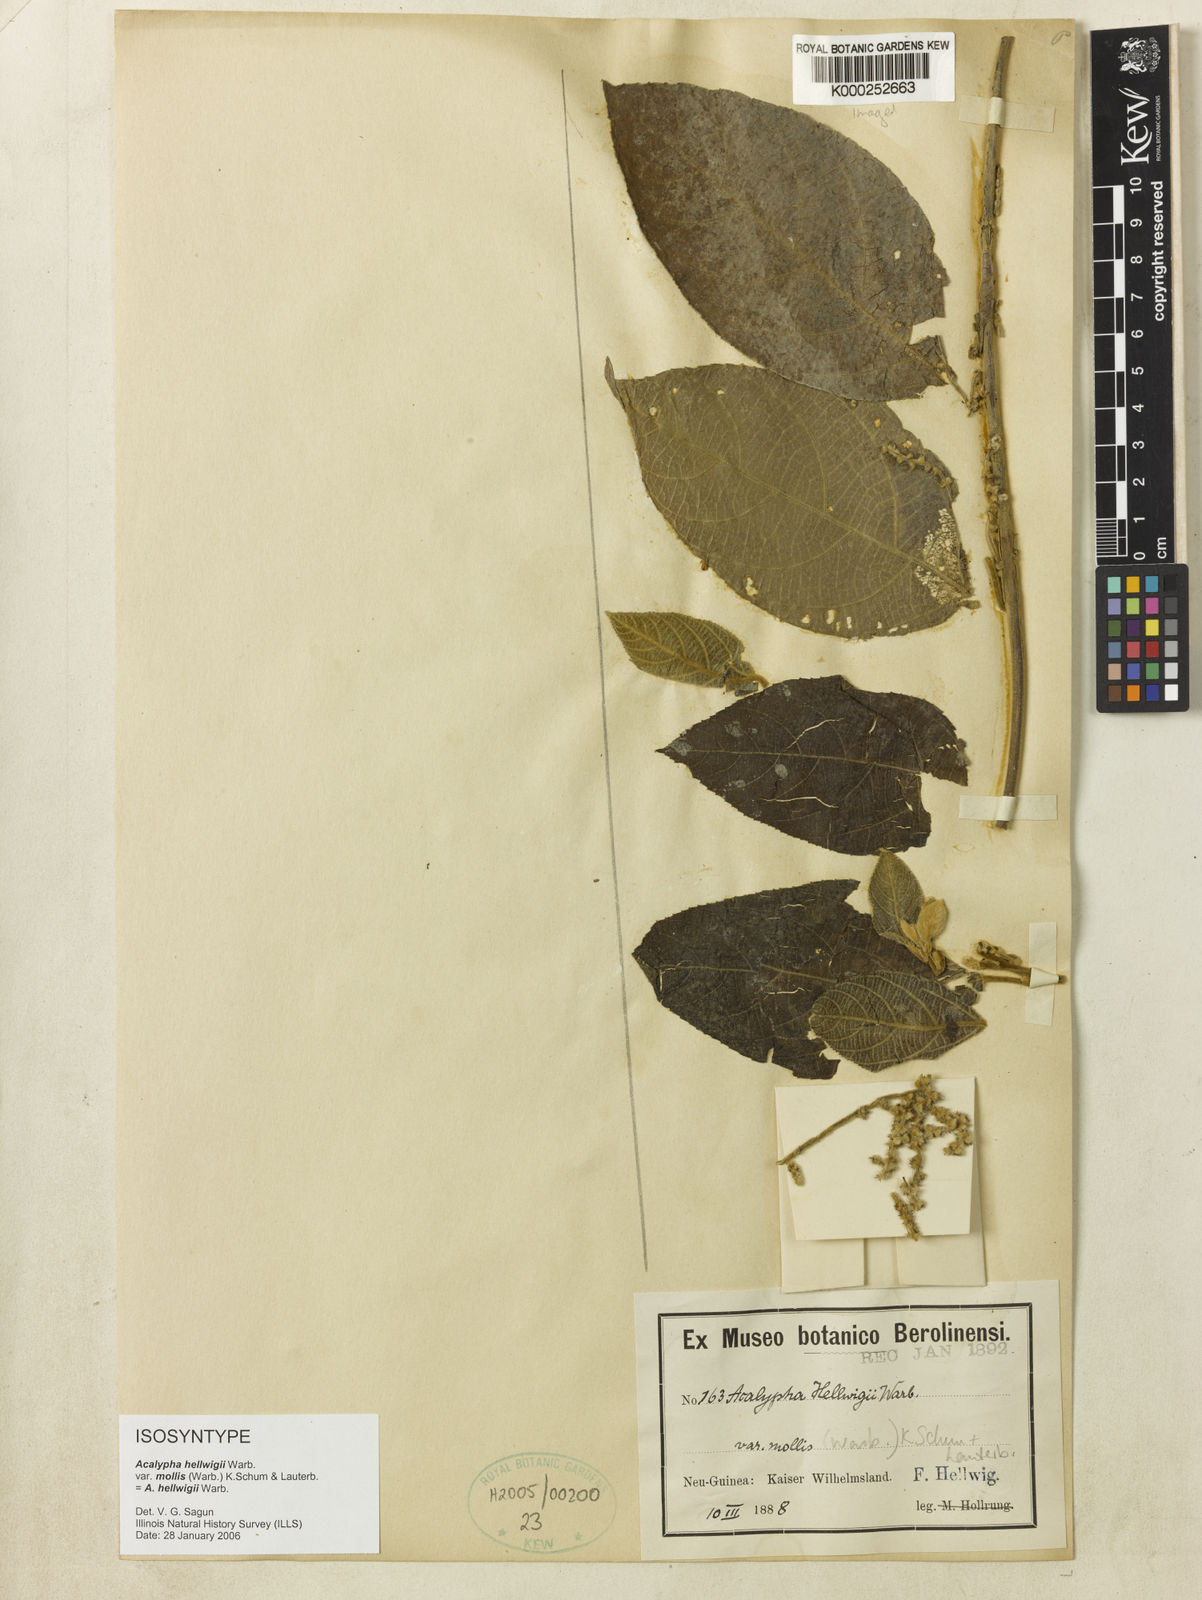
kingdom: Plantae
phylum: Tracheophyta
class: Magnoliopsida
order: Malpighiales
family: Euphorbiaceae
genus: Acalypha
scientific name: Acalypha hellwigii
